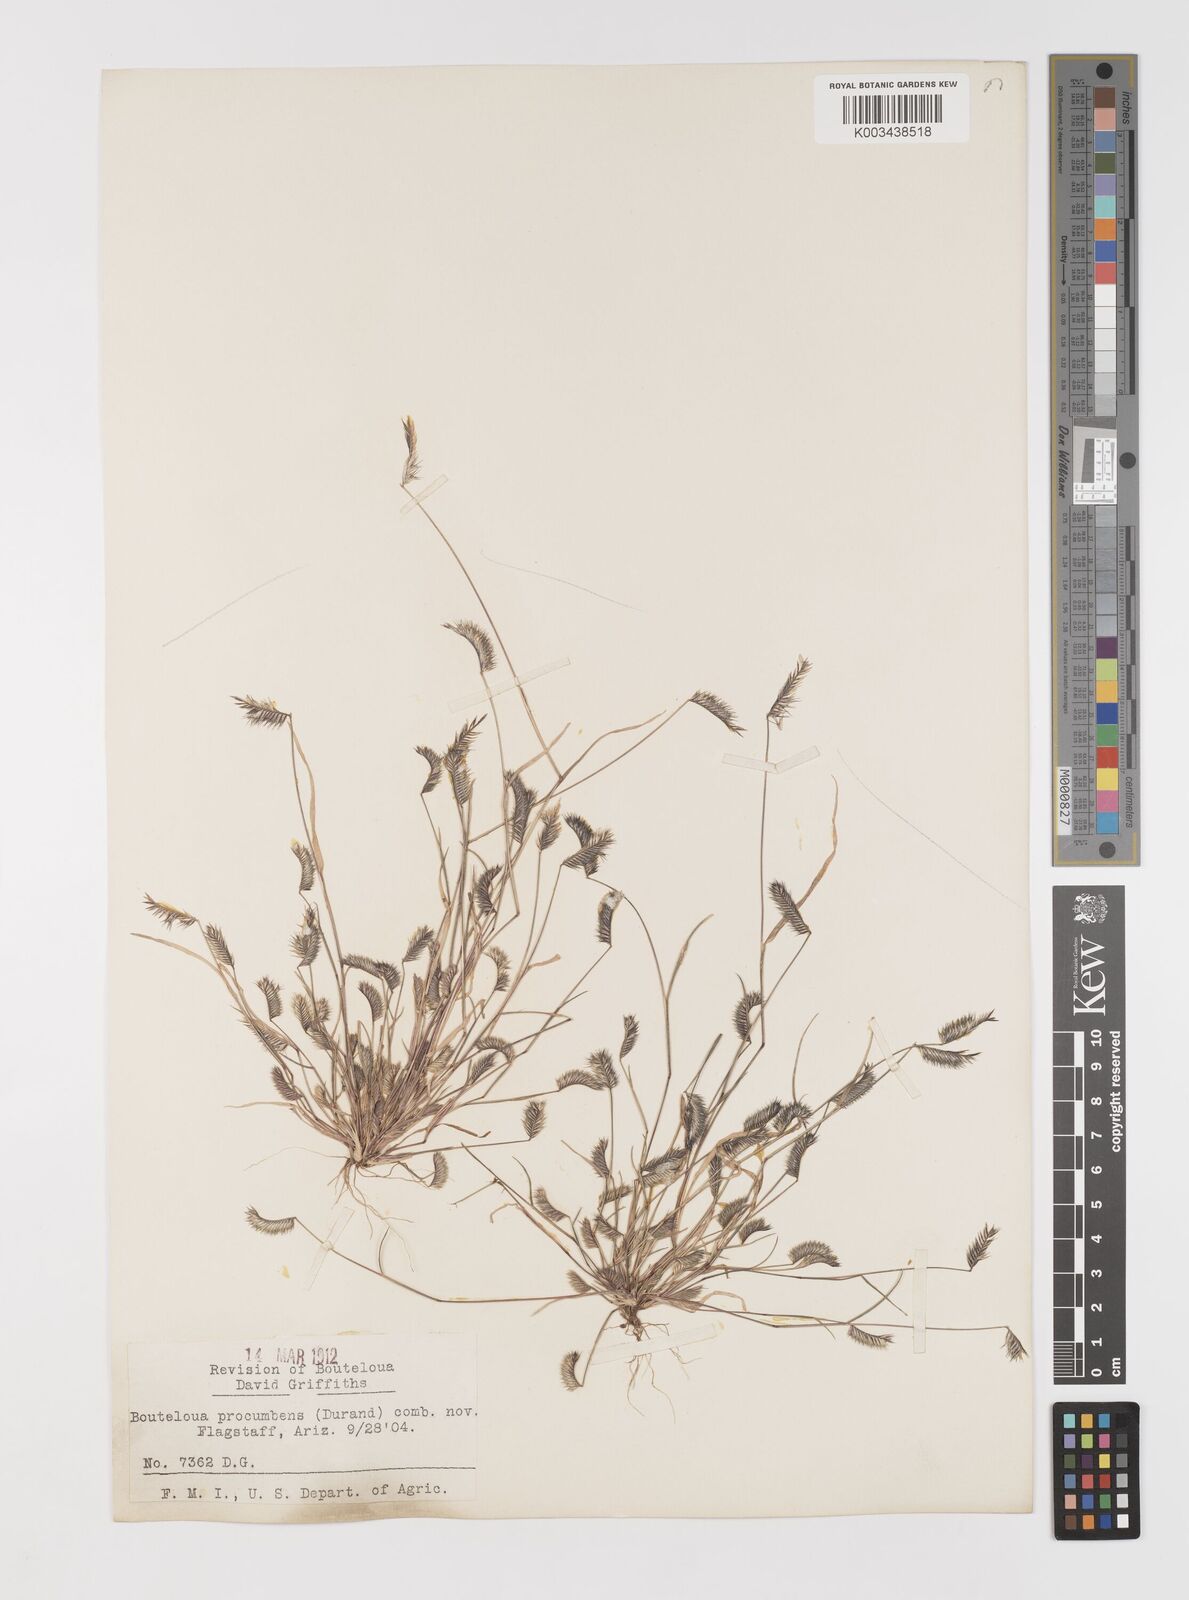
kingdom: Plantae
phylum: Tracheophyta
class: Liliopsida
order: Poales
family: Poaceae
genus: Bouteloua
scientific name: Bouteloua simplex
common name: Mat grama
